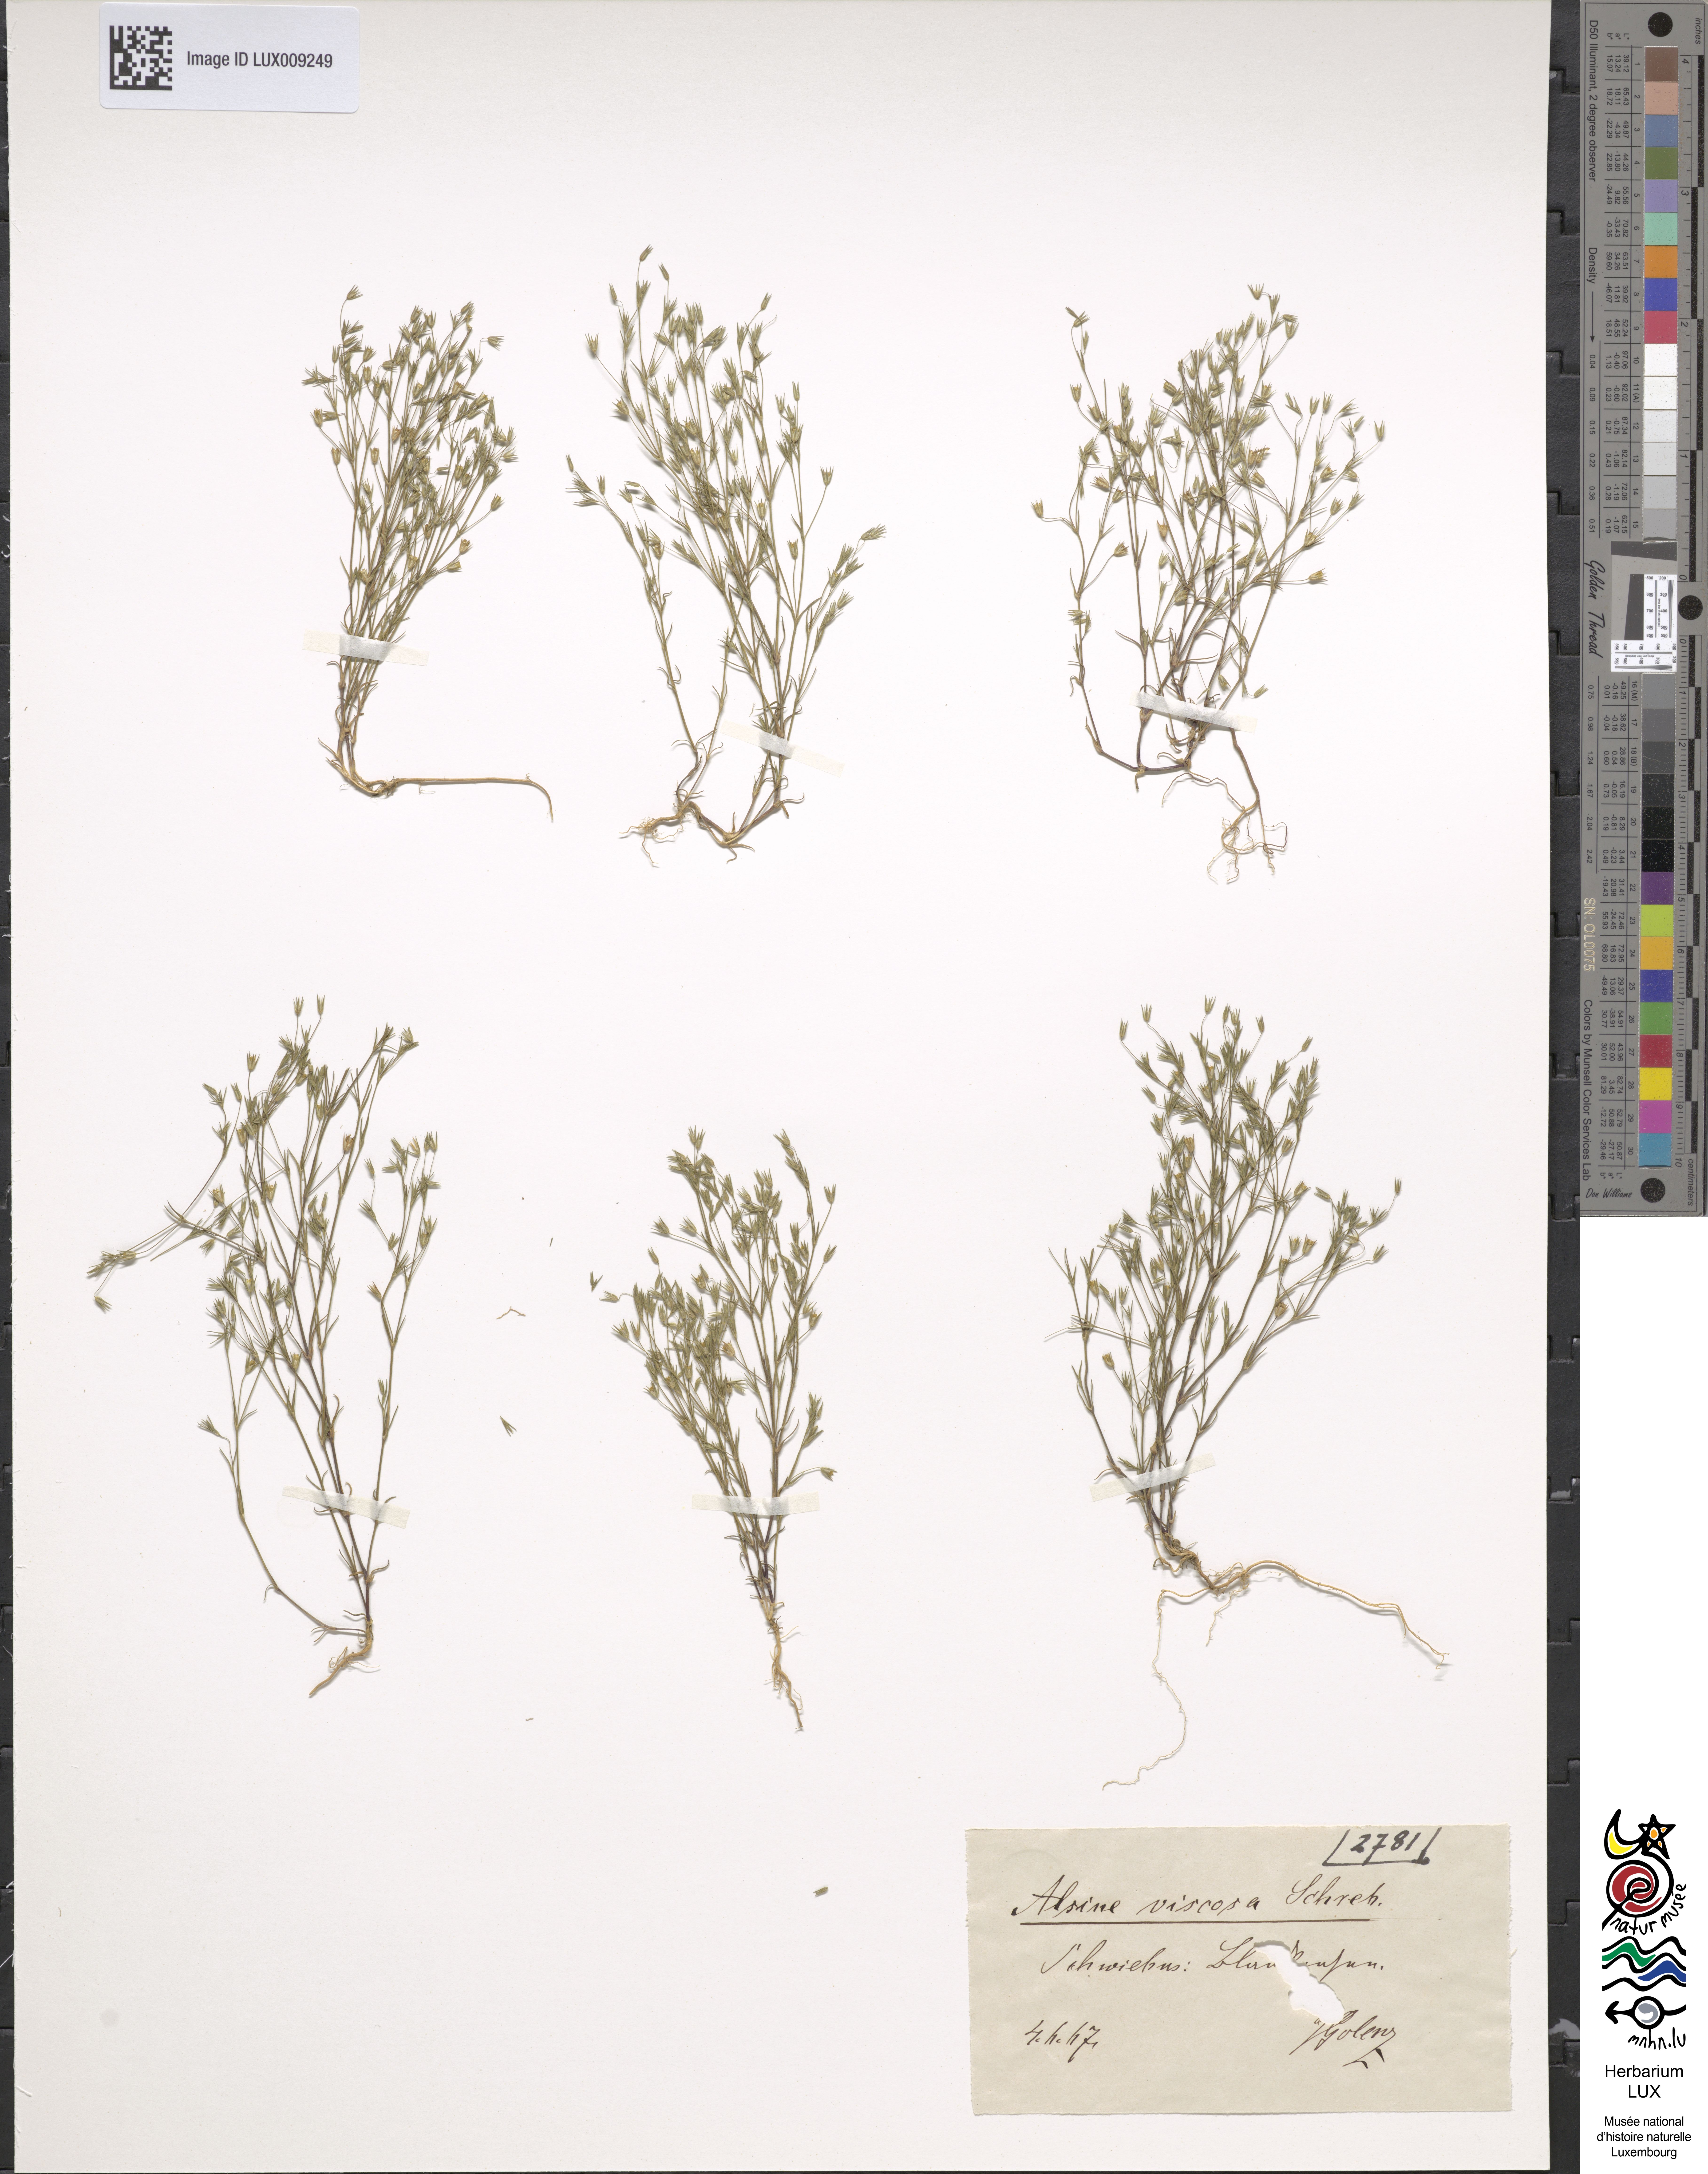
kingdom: Plantae
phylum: Tracheophyta
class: Magnoliopsida
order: Caryophyllales
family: Caryophyllaceae
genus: Sabulina
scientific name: Sabulina viscosa
